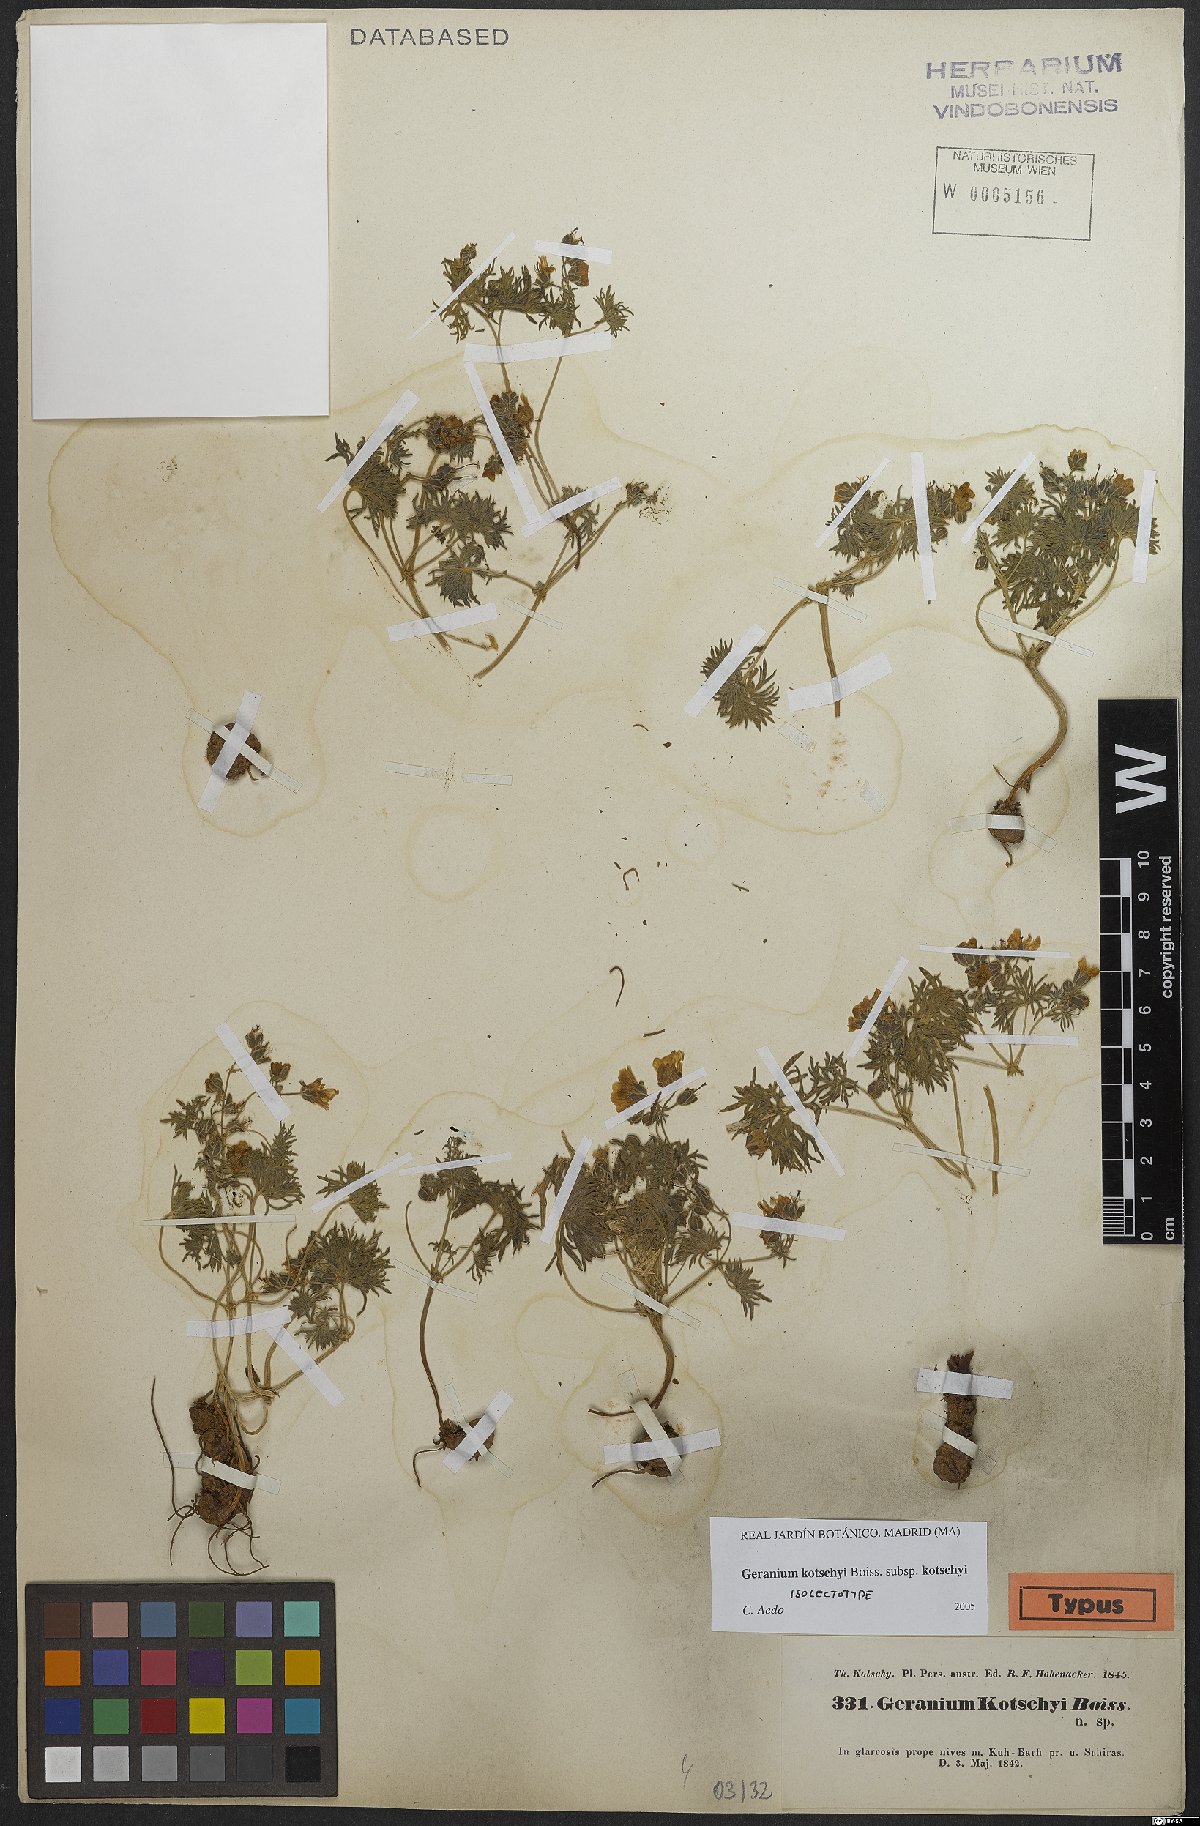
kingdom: Plantae
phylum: Tracheophyta
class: Magnoliopsida
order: Geraniales
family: Geraniaceae
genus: Geranium
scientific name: Geranium kotschyi
